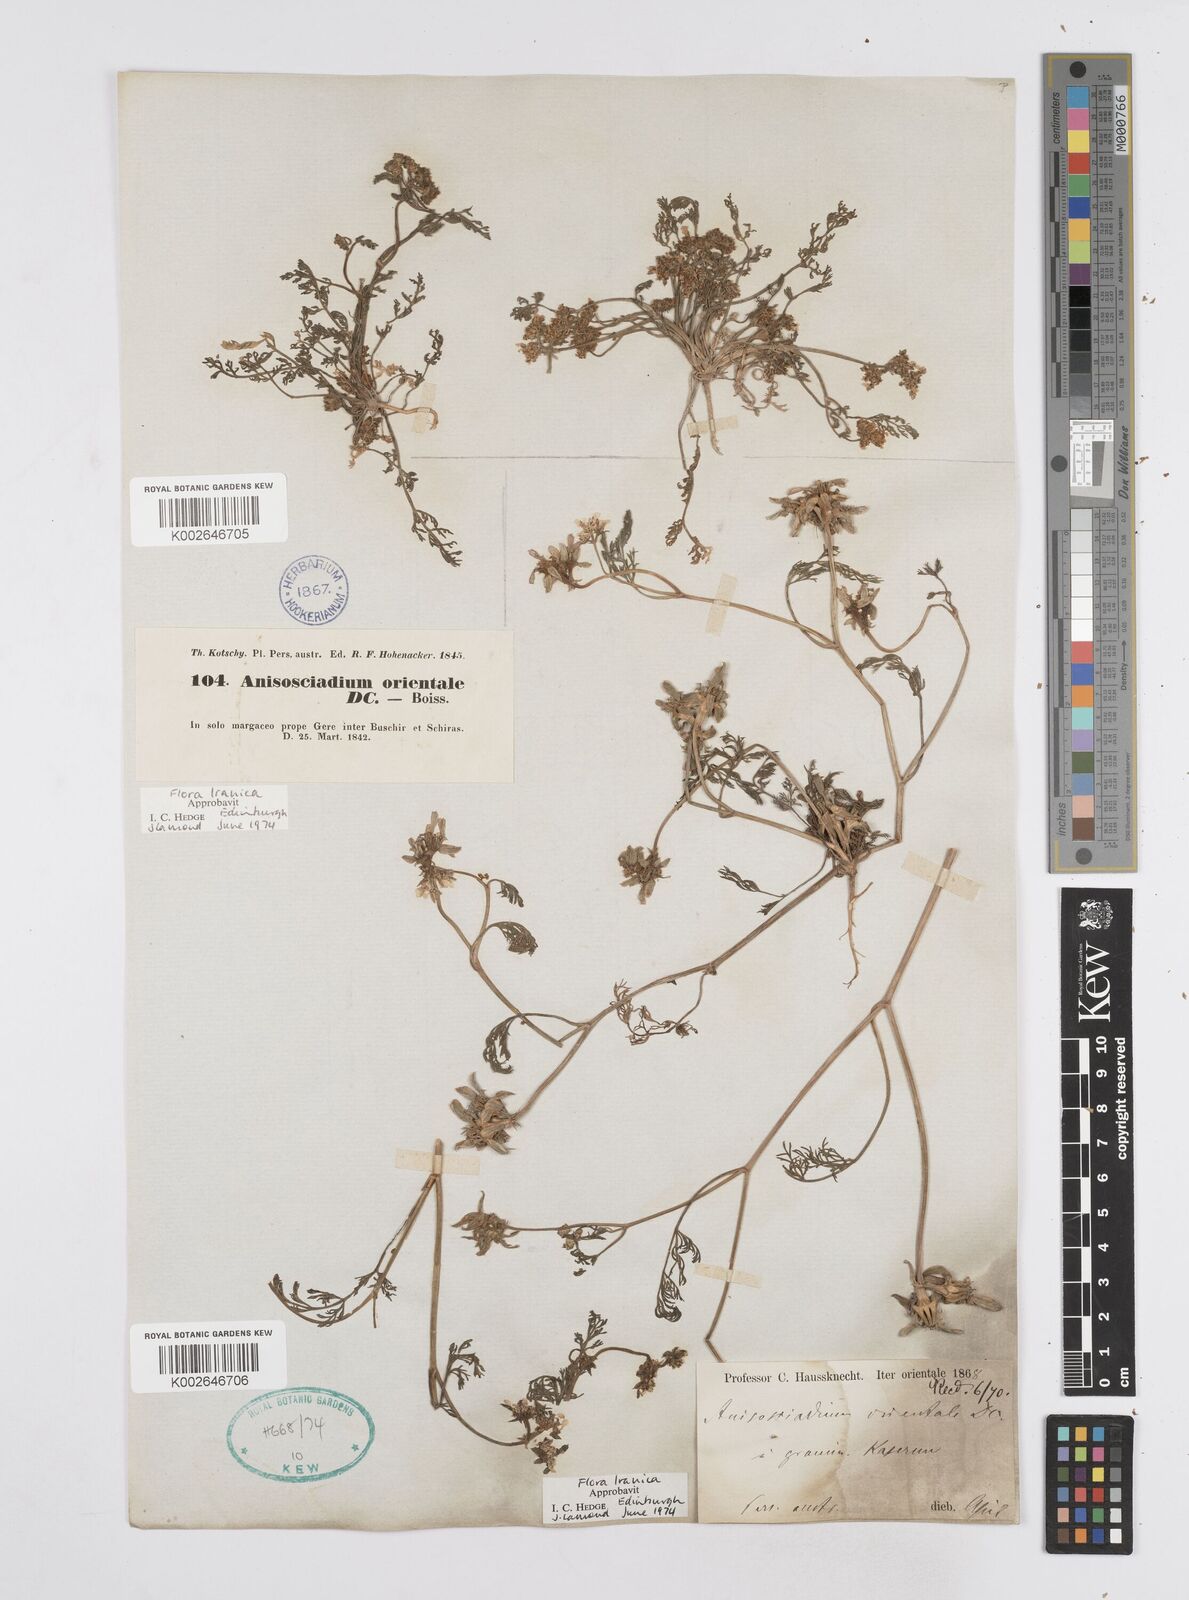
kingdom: Plantae
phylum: Tracheophyta
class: Magnoliopsida
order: Apiales
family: Apiaceae
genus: Anisosciadium
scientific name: Anisosciadium orientale
